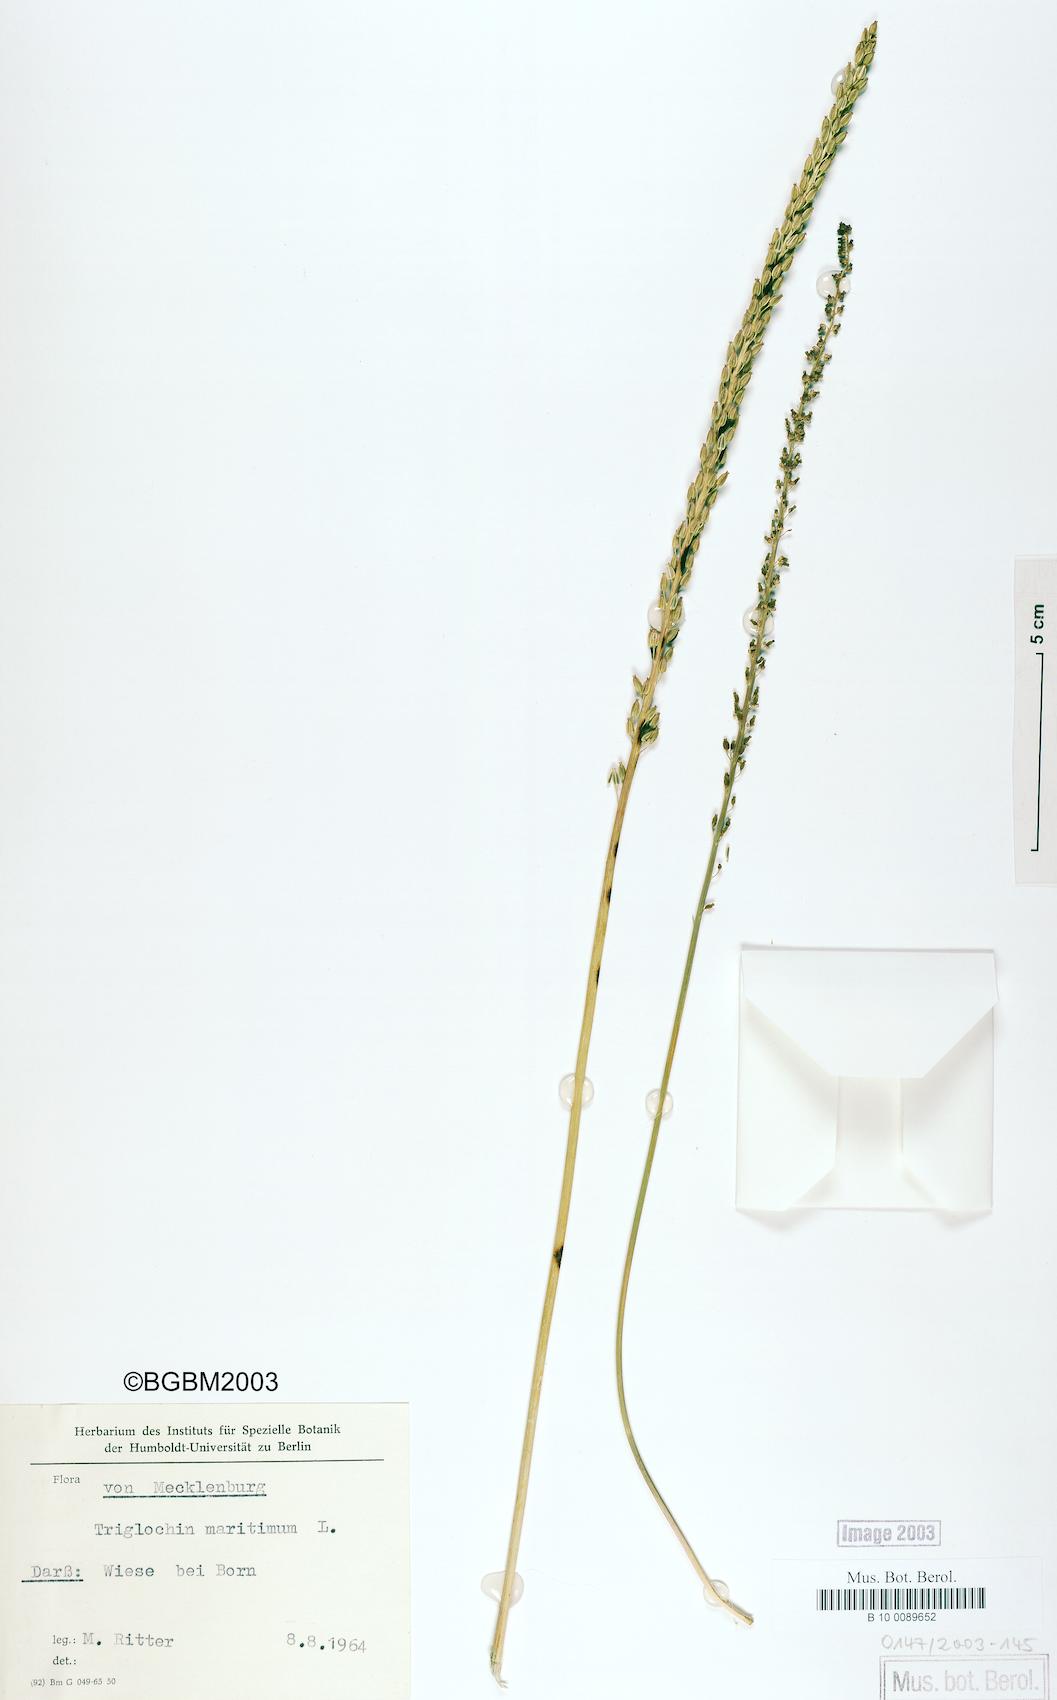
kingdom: Plantae
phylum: Tracheophyta
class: Liliopsida
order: Alismatales
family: Juncaginaceae
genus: Triglochin
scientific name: Triglochin maritima
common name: Sea arrowgrass
